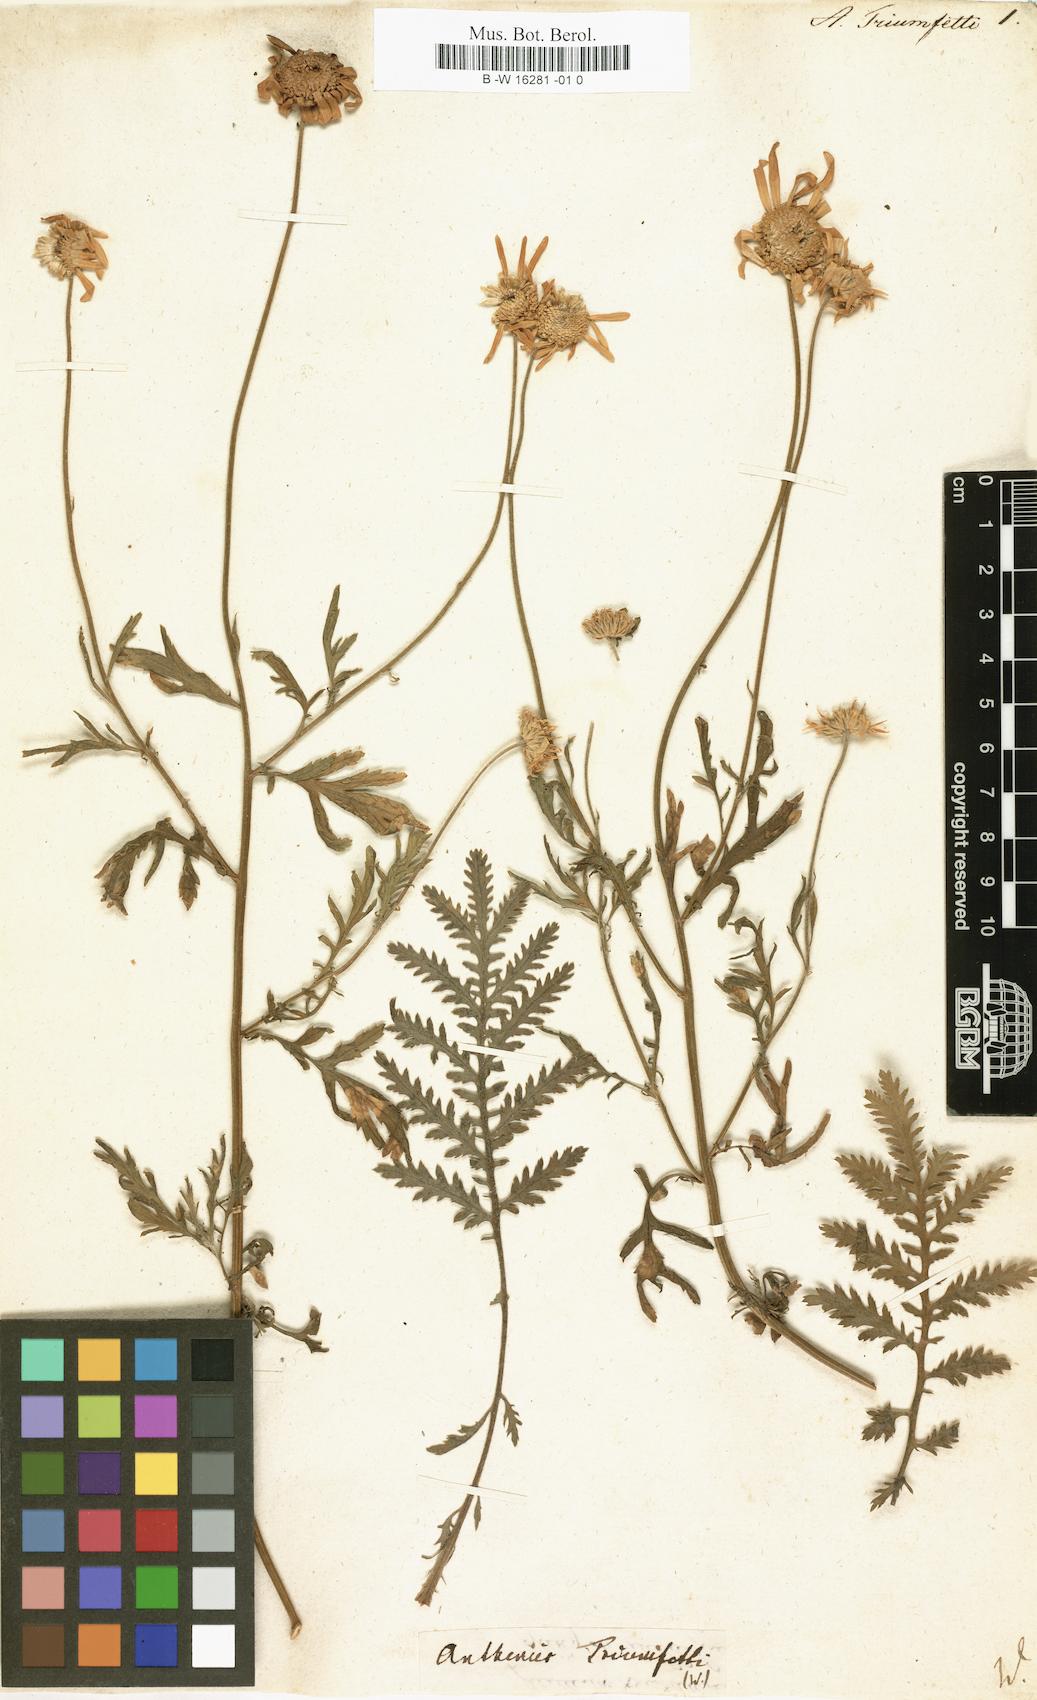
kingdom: Plantae
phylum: Tracheophyta
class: Magnoliopsida
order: Asterales
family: Asteraceae
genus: Cota
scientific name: Cota triumfetti
